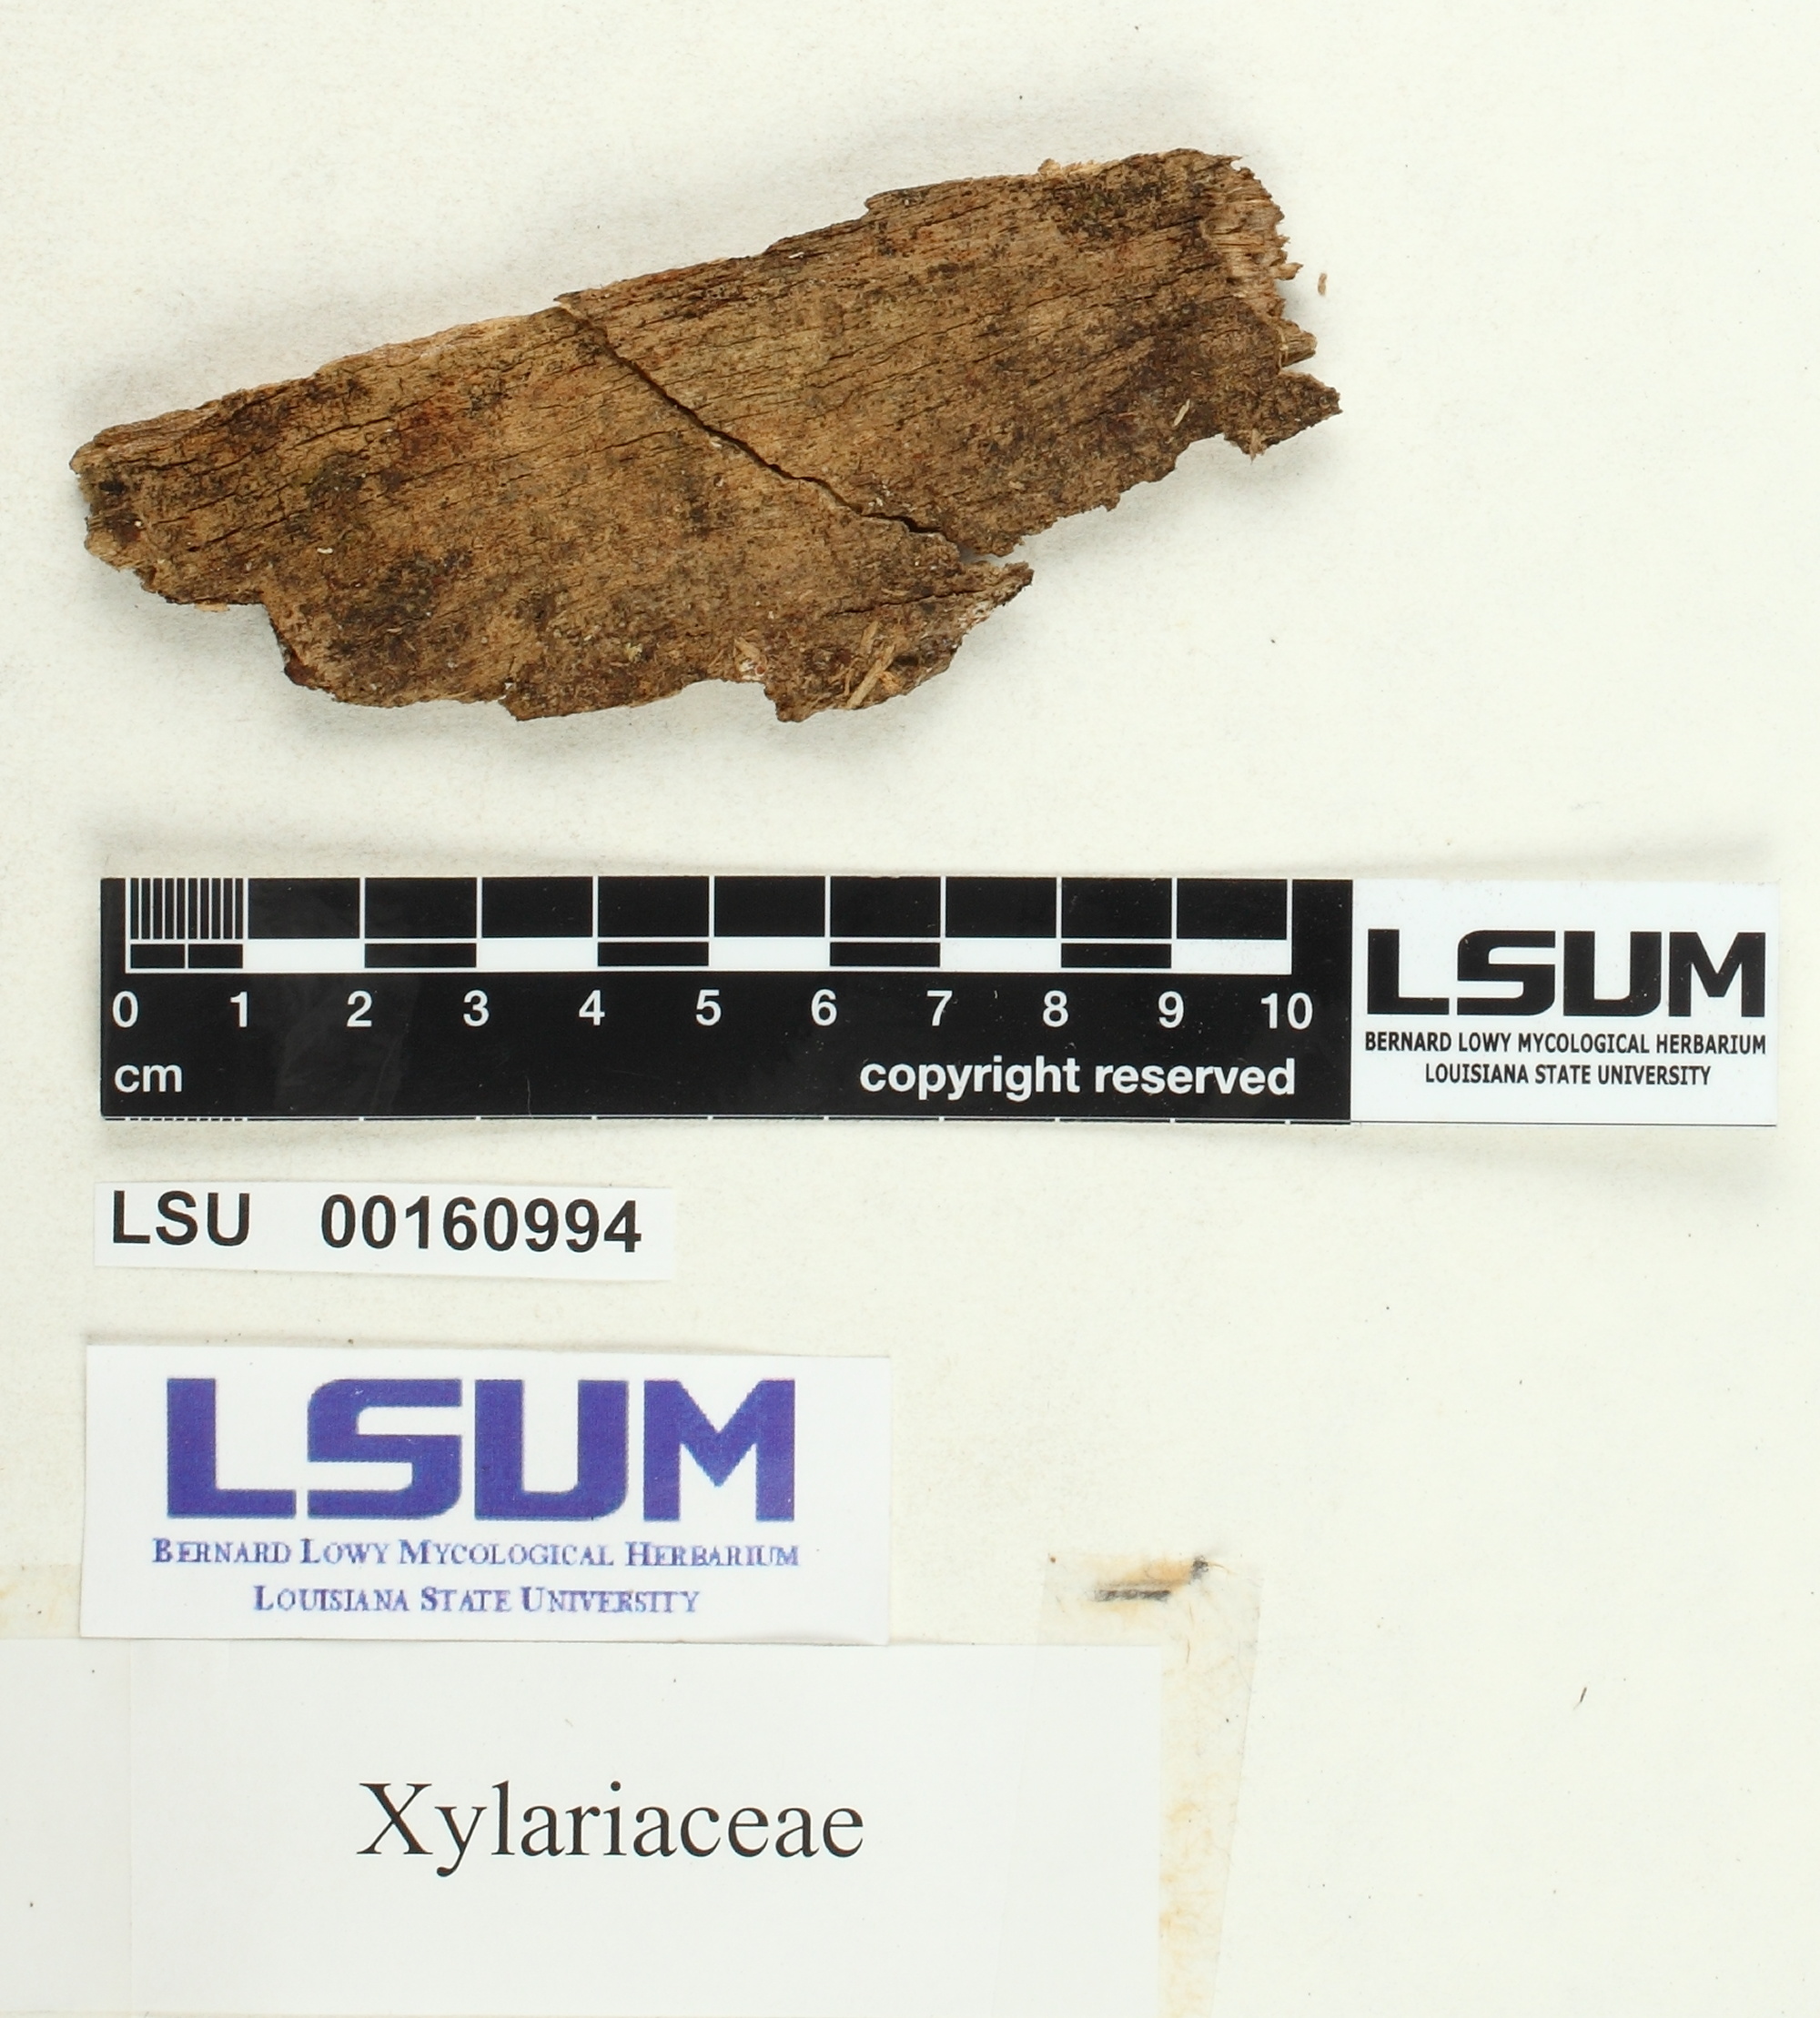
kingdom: Fungi
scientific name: Fungi
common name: Fungi
